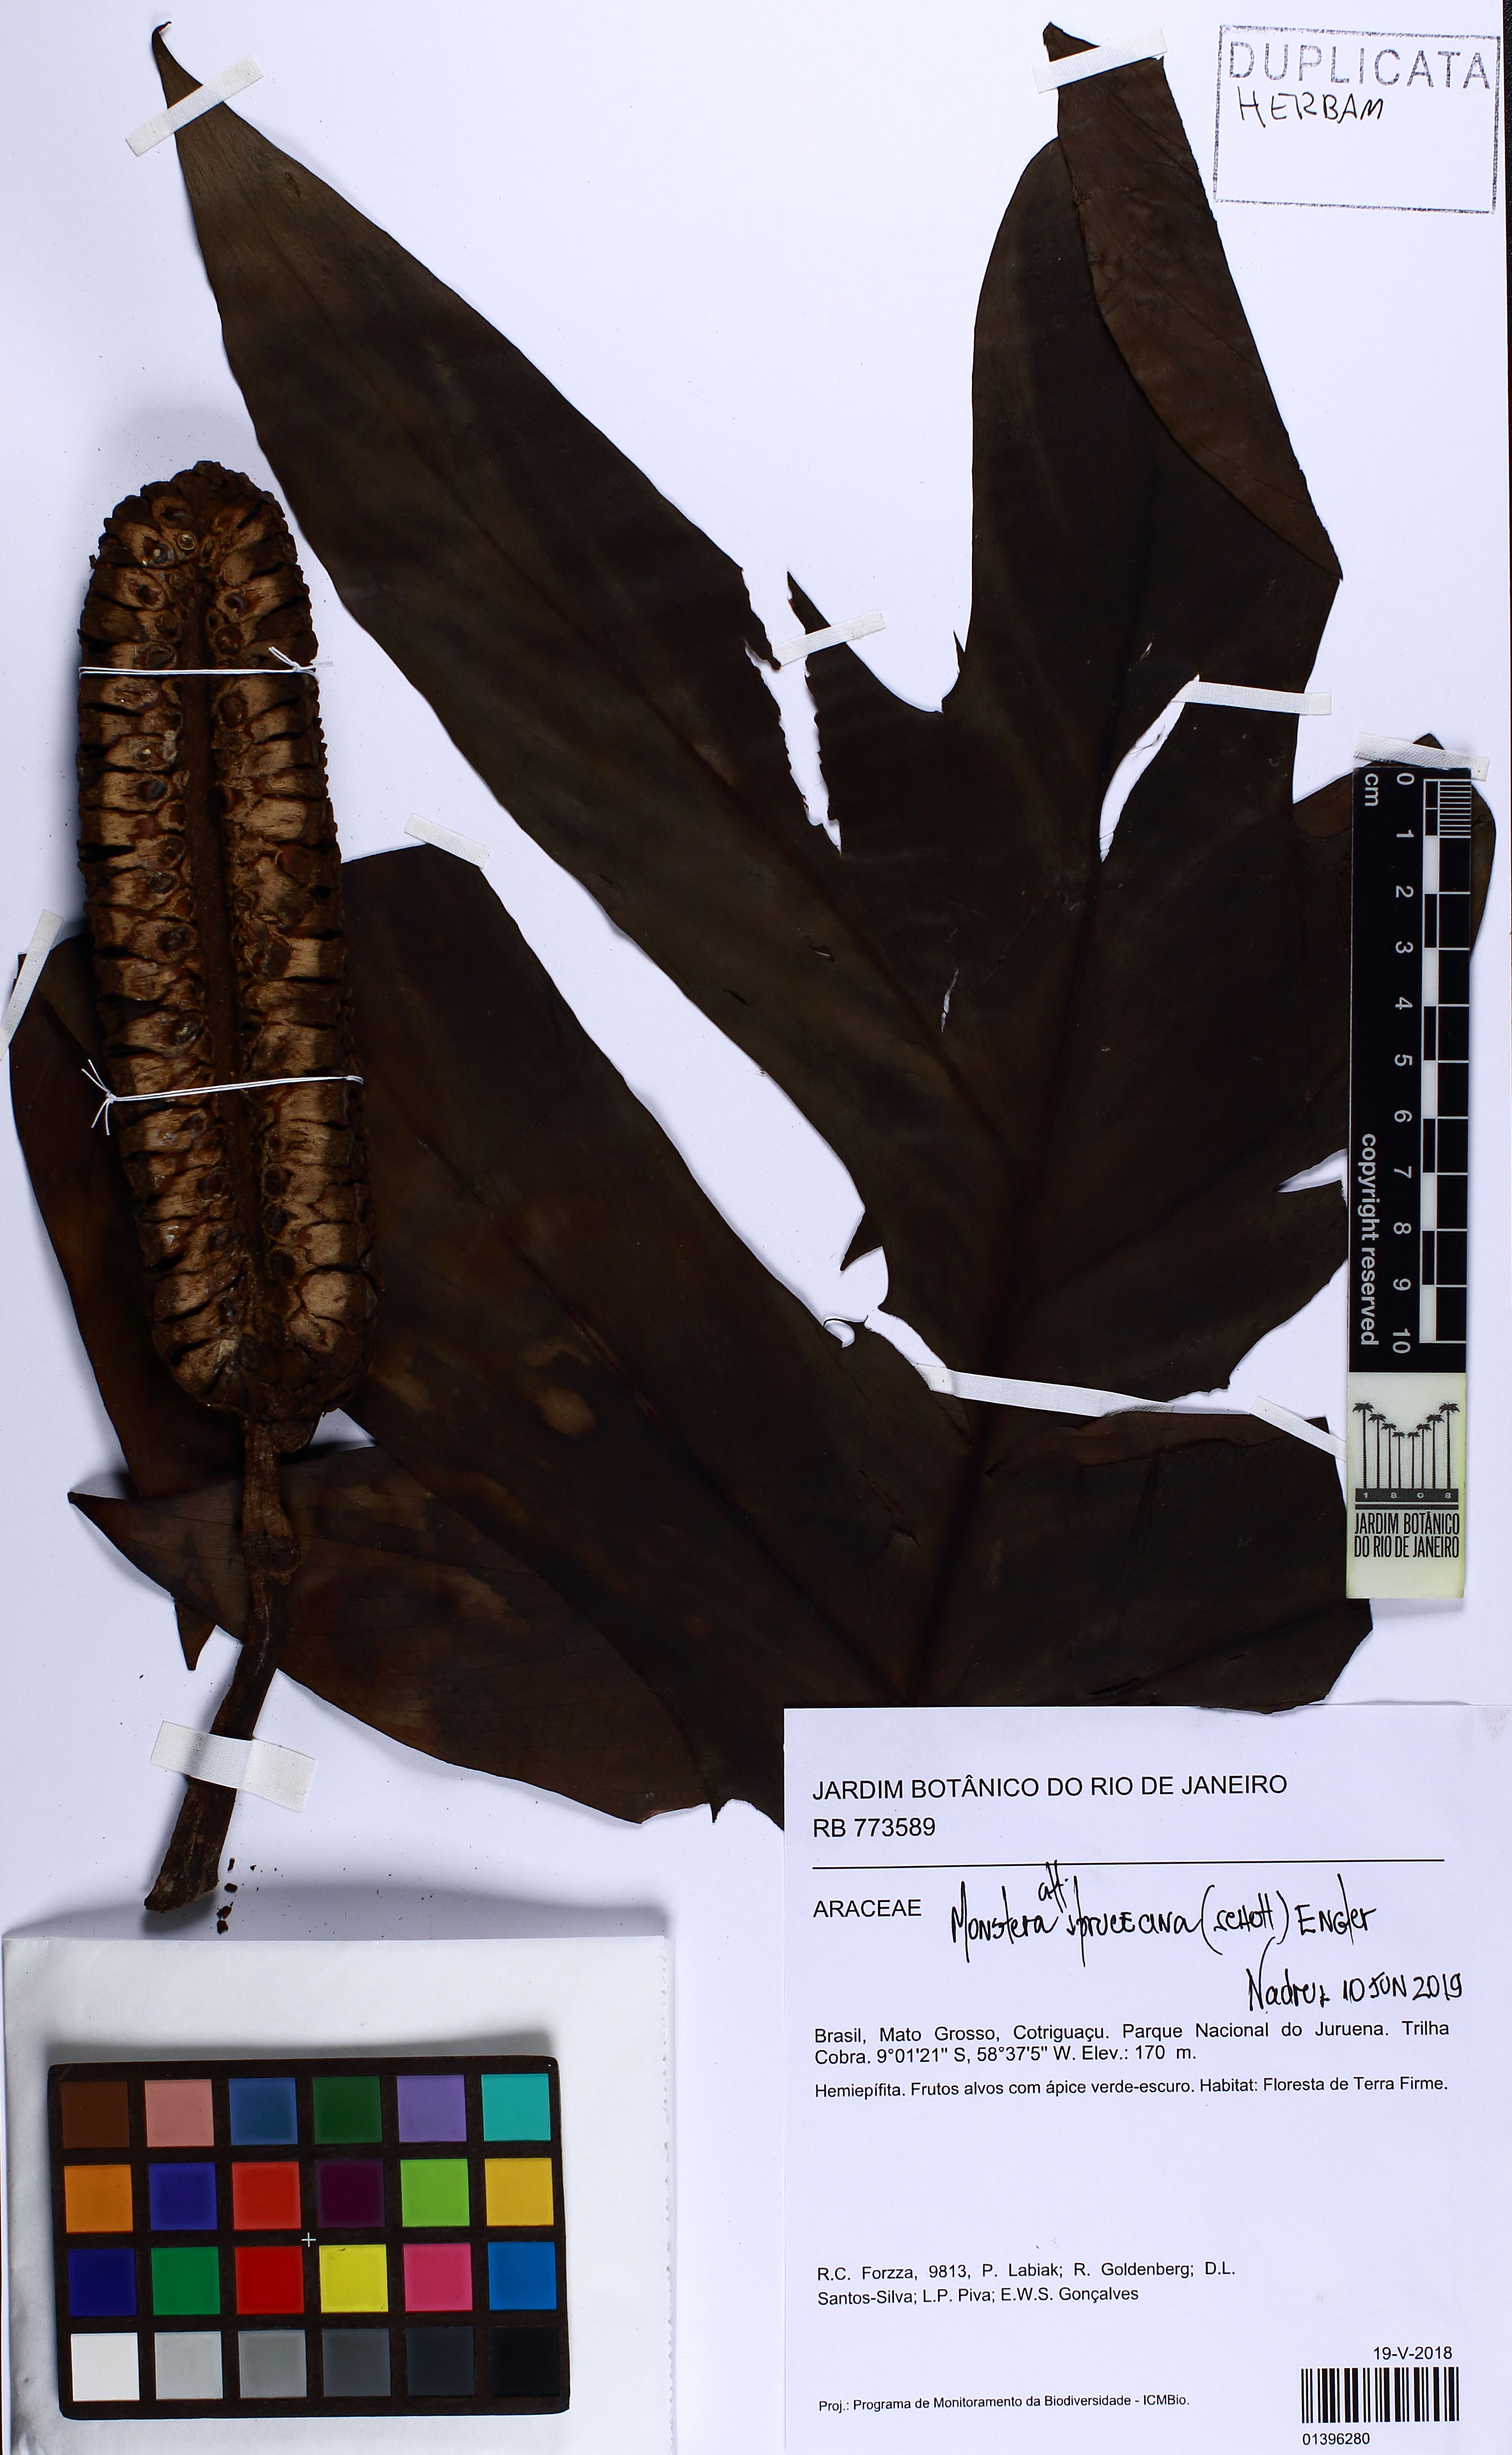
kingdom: Plantae
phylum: Tracheophyta
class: Liliopsida
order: Alismatales
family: Araceae
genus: Monstera
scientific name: Monstera spruceana
